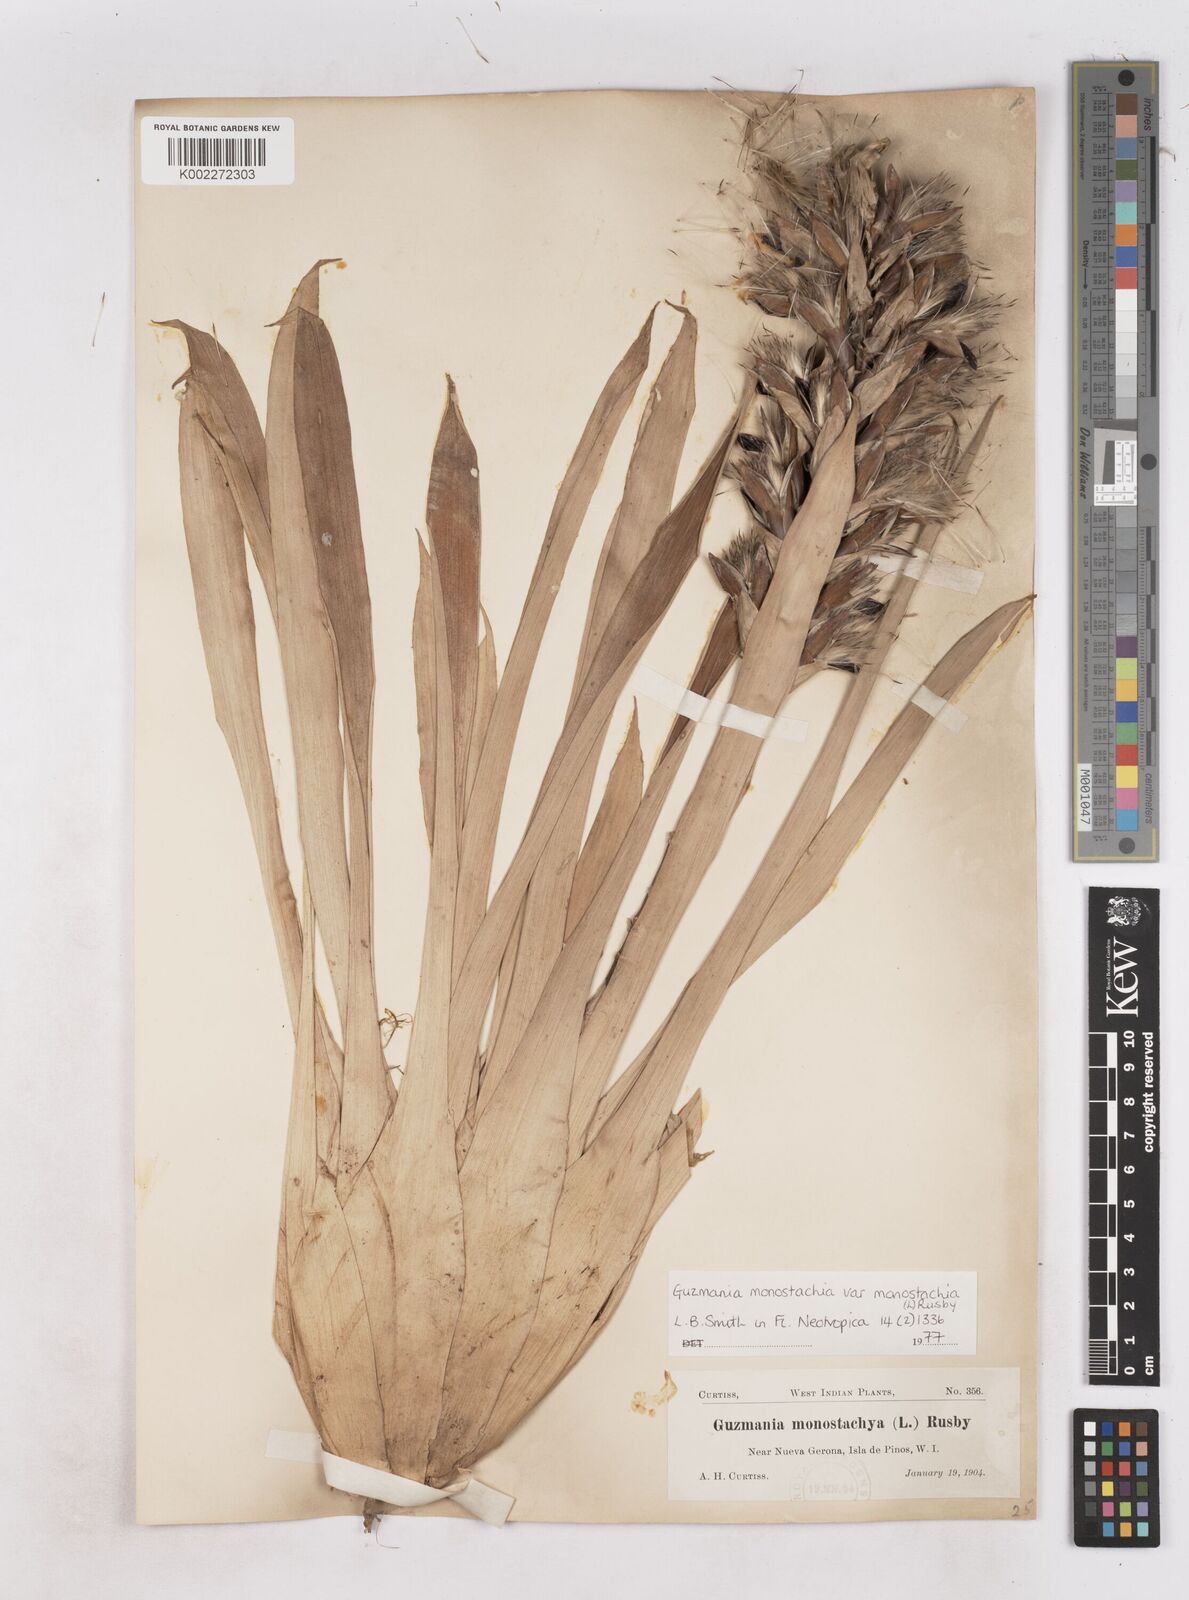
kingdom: Plantae
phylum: Tracheophyta
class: Liliopsida
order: Poales
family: Bromeliaceae
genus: Guzmania
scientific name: Guzmania monostachia
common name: West indian tufted airplant
